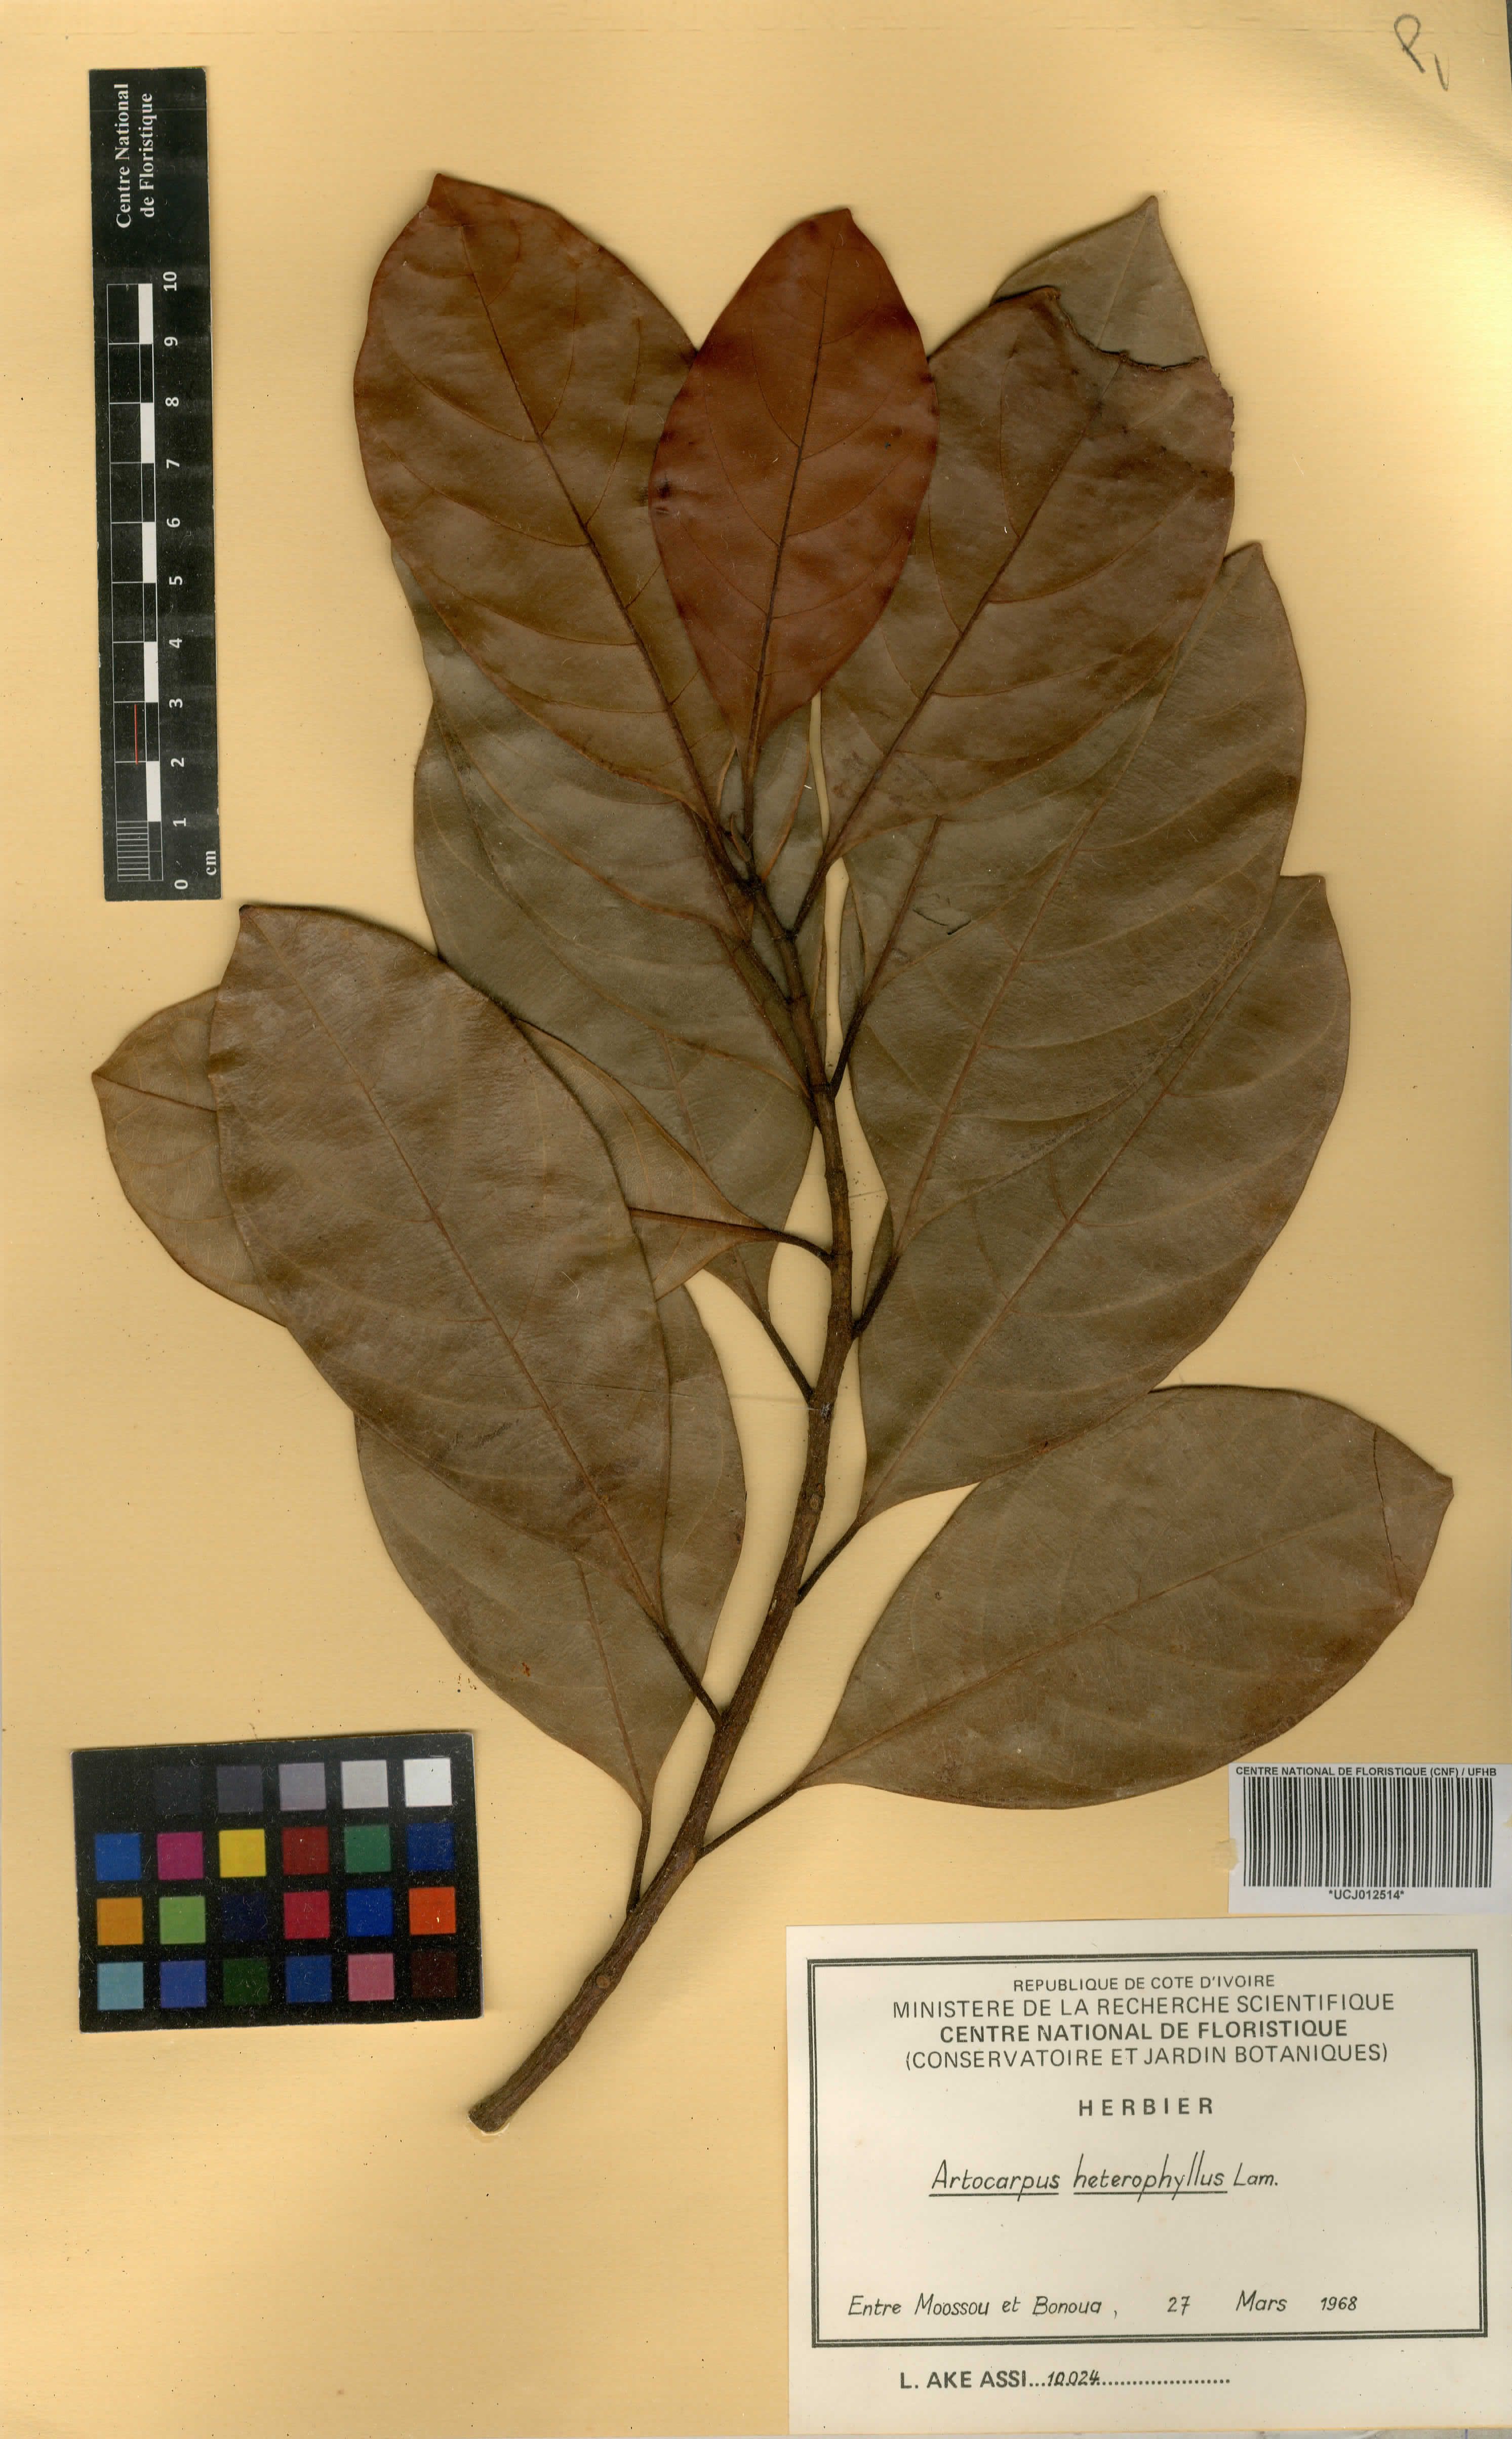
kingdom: Plantae
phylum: Tracheophyta
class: Magnoliopsida
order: Rosales
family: Moraceae
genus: Artocarpus
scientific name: Artocarpus heterophyllus
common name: Jackfruit
